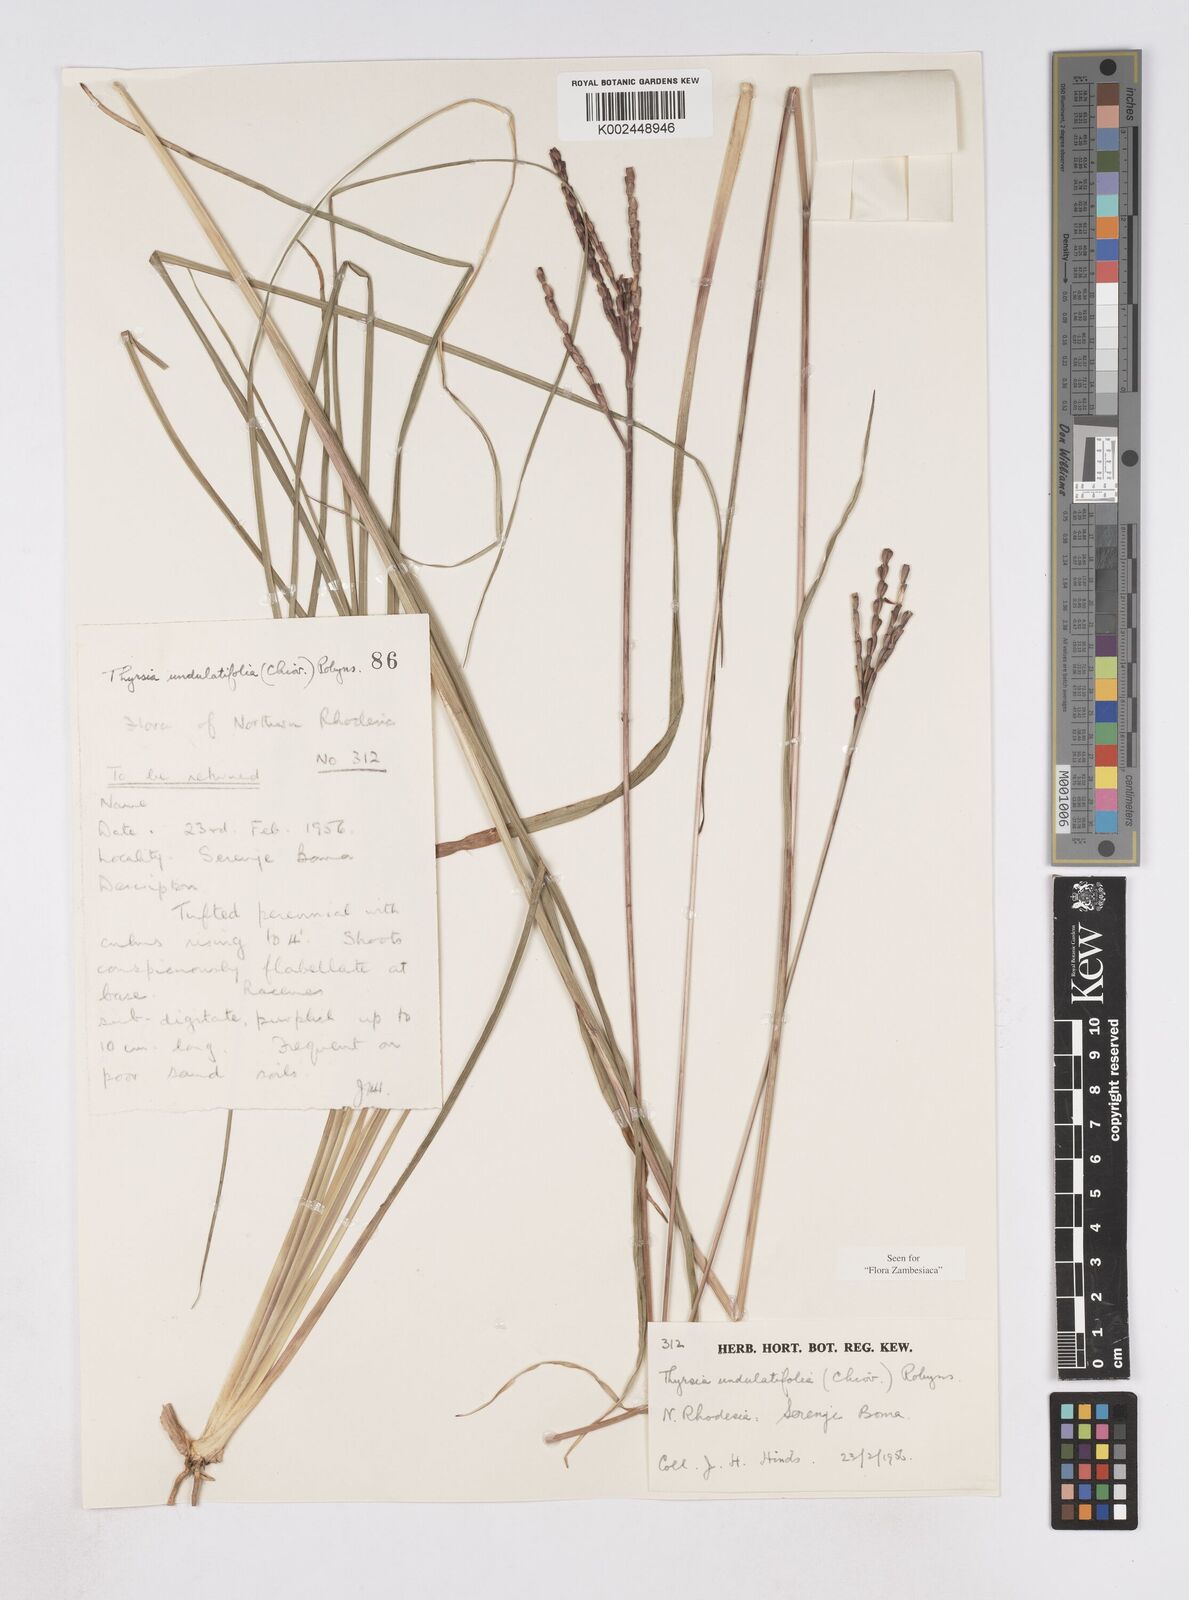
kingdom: Plantae
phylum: Tracheophyta
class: Liliopsida
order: Poales
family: Poaceae
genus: Thyrsia
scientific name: Thyrsia huillensis
